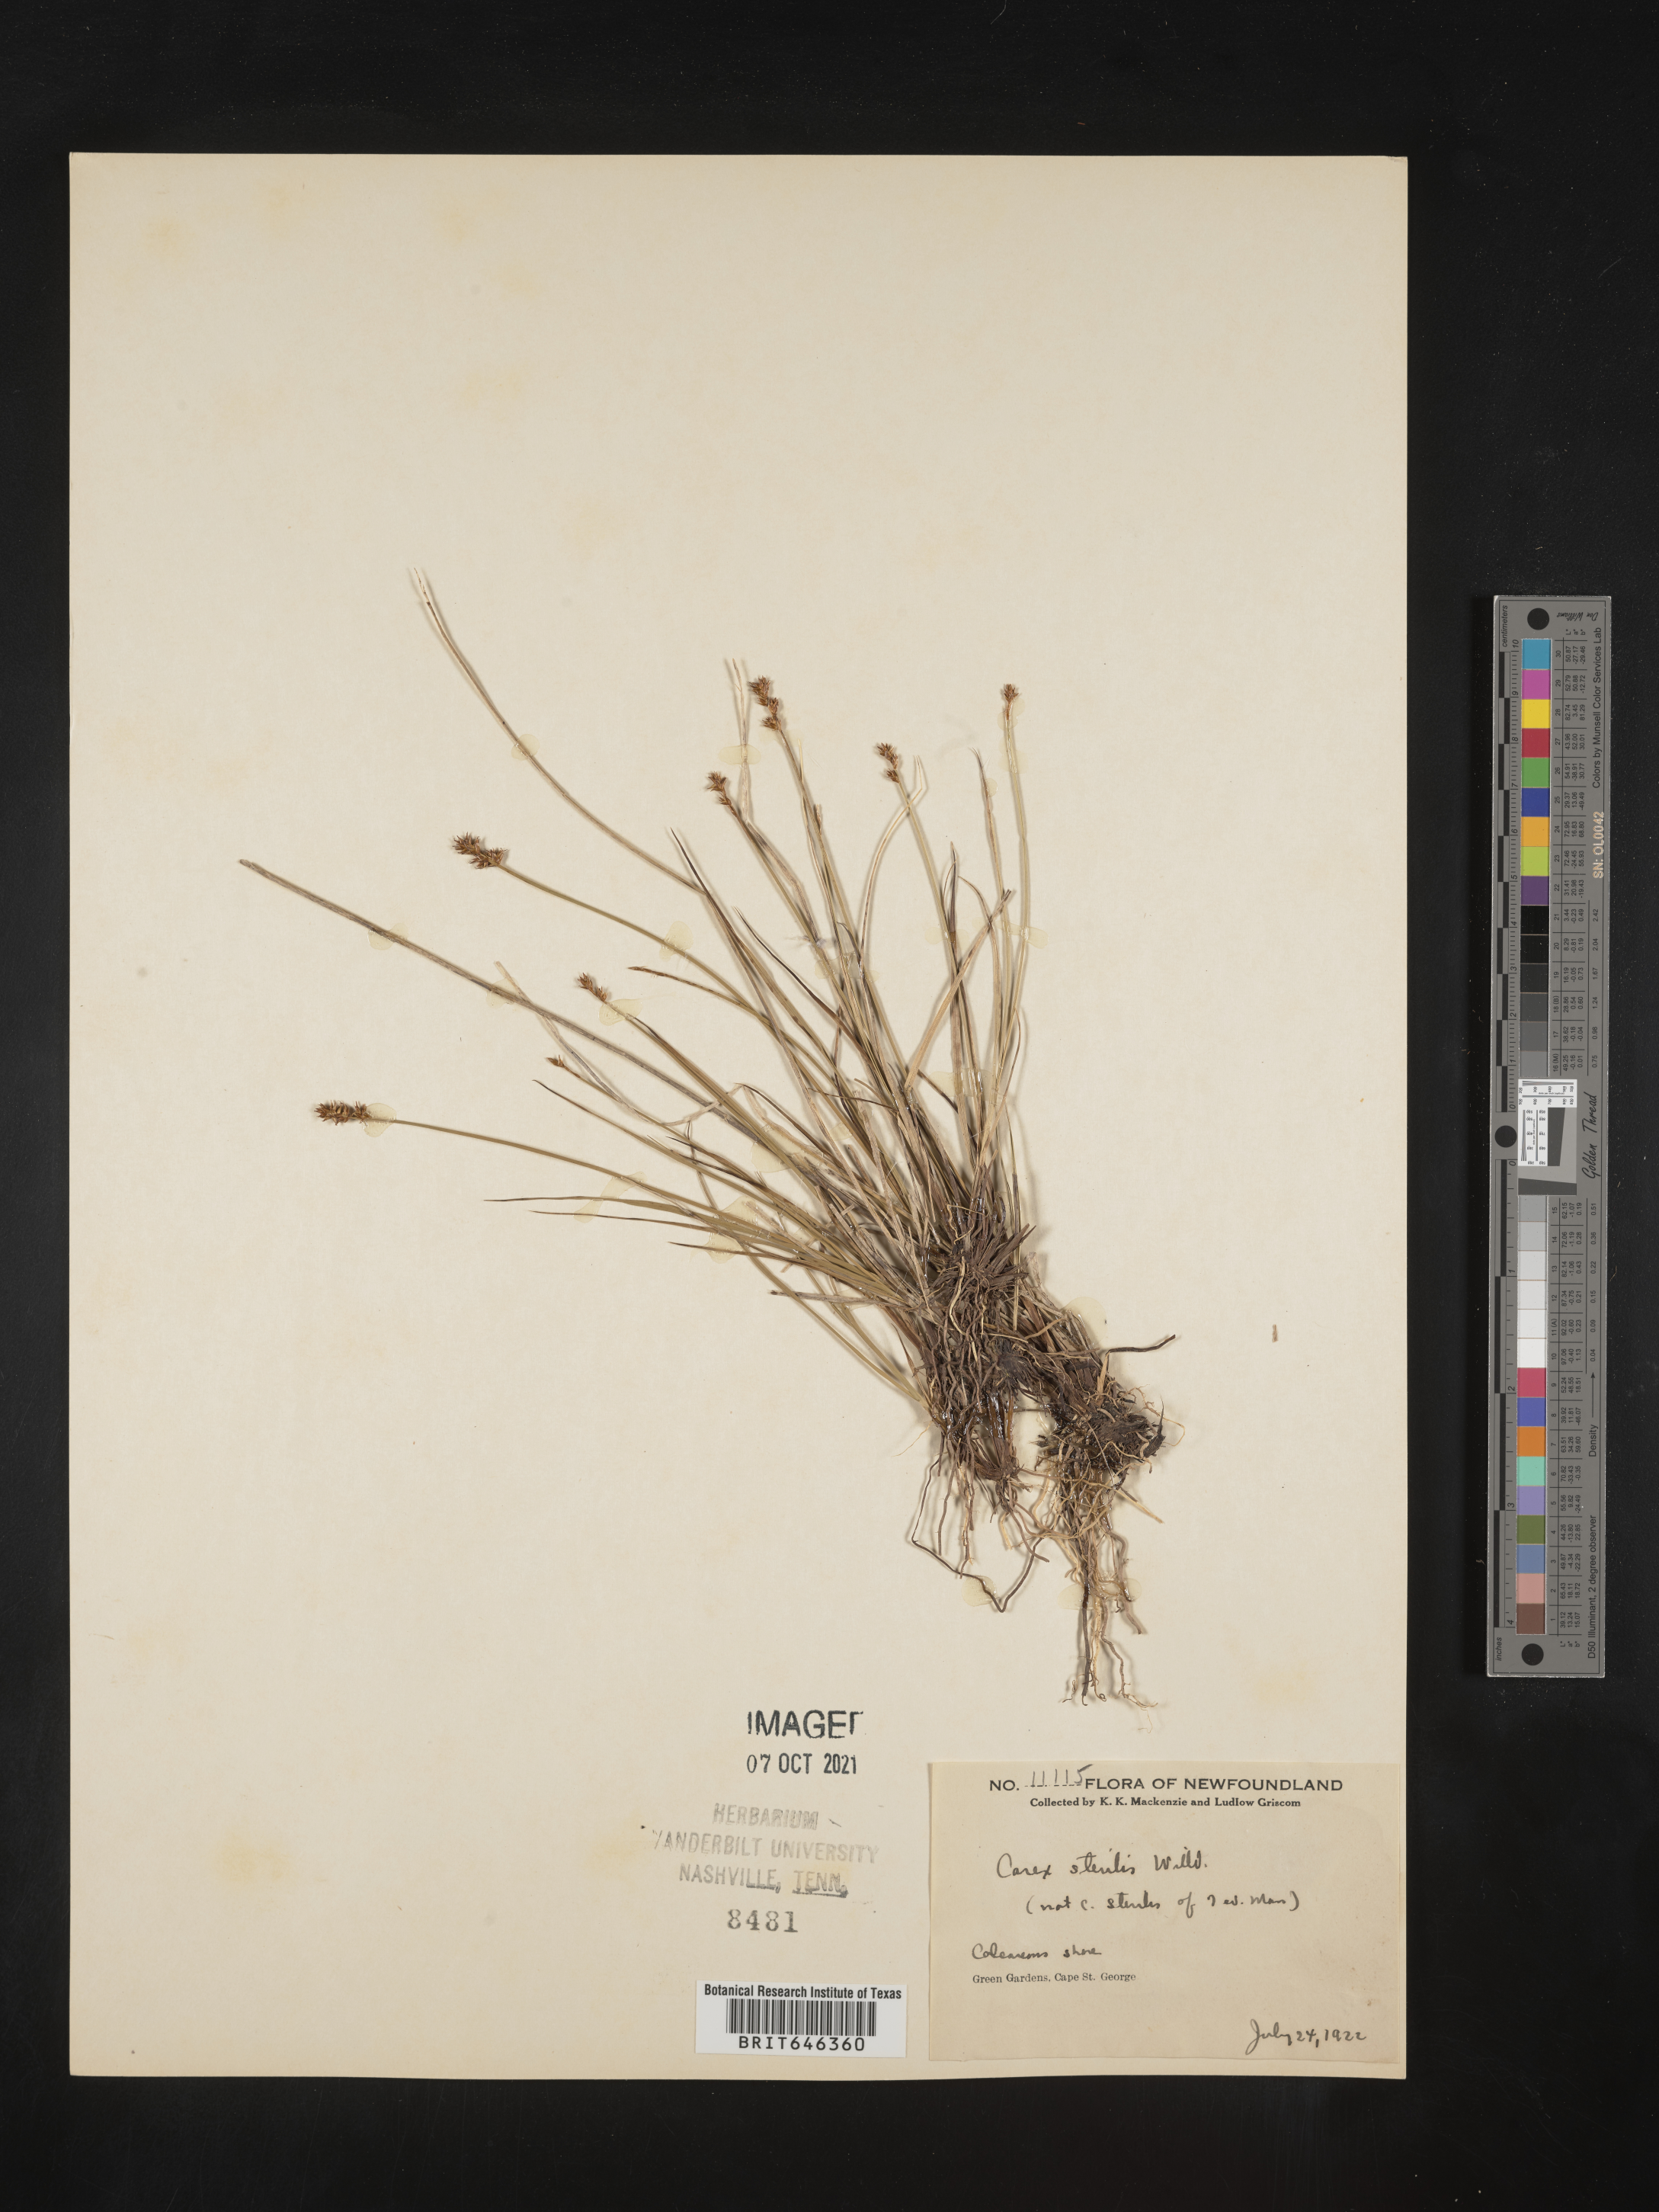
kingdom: Plantae
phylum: Tracheophyta
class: Liliopsida
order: Poales
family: Cyperaceae
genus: Carex
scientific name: Carex sterilis
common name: Dioecious sedge
